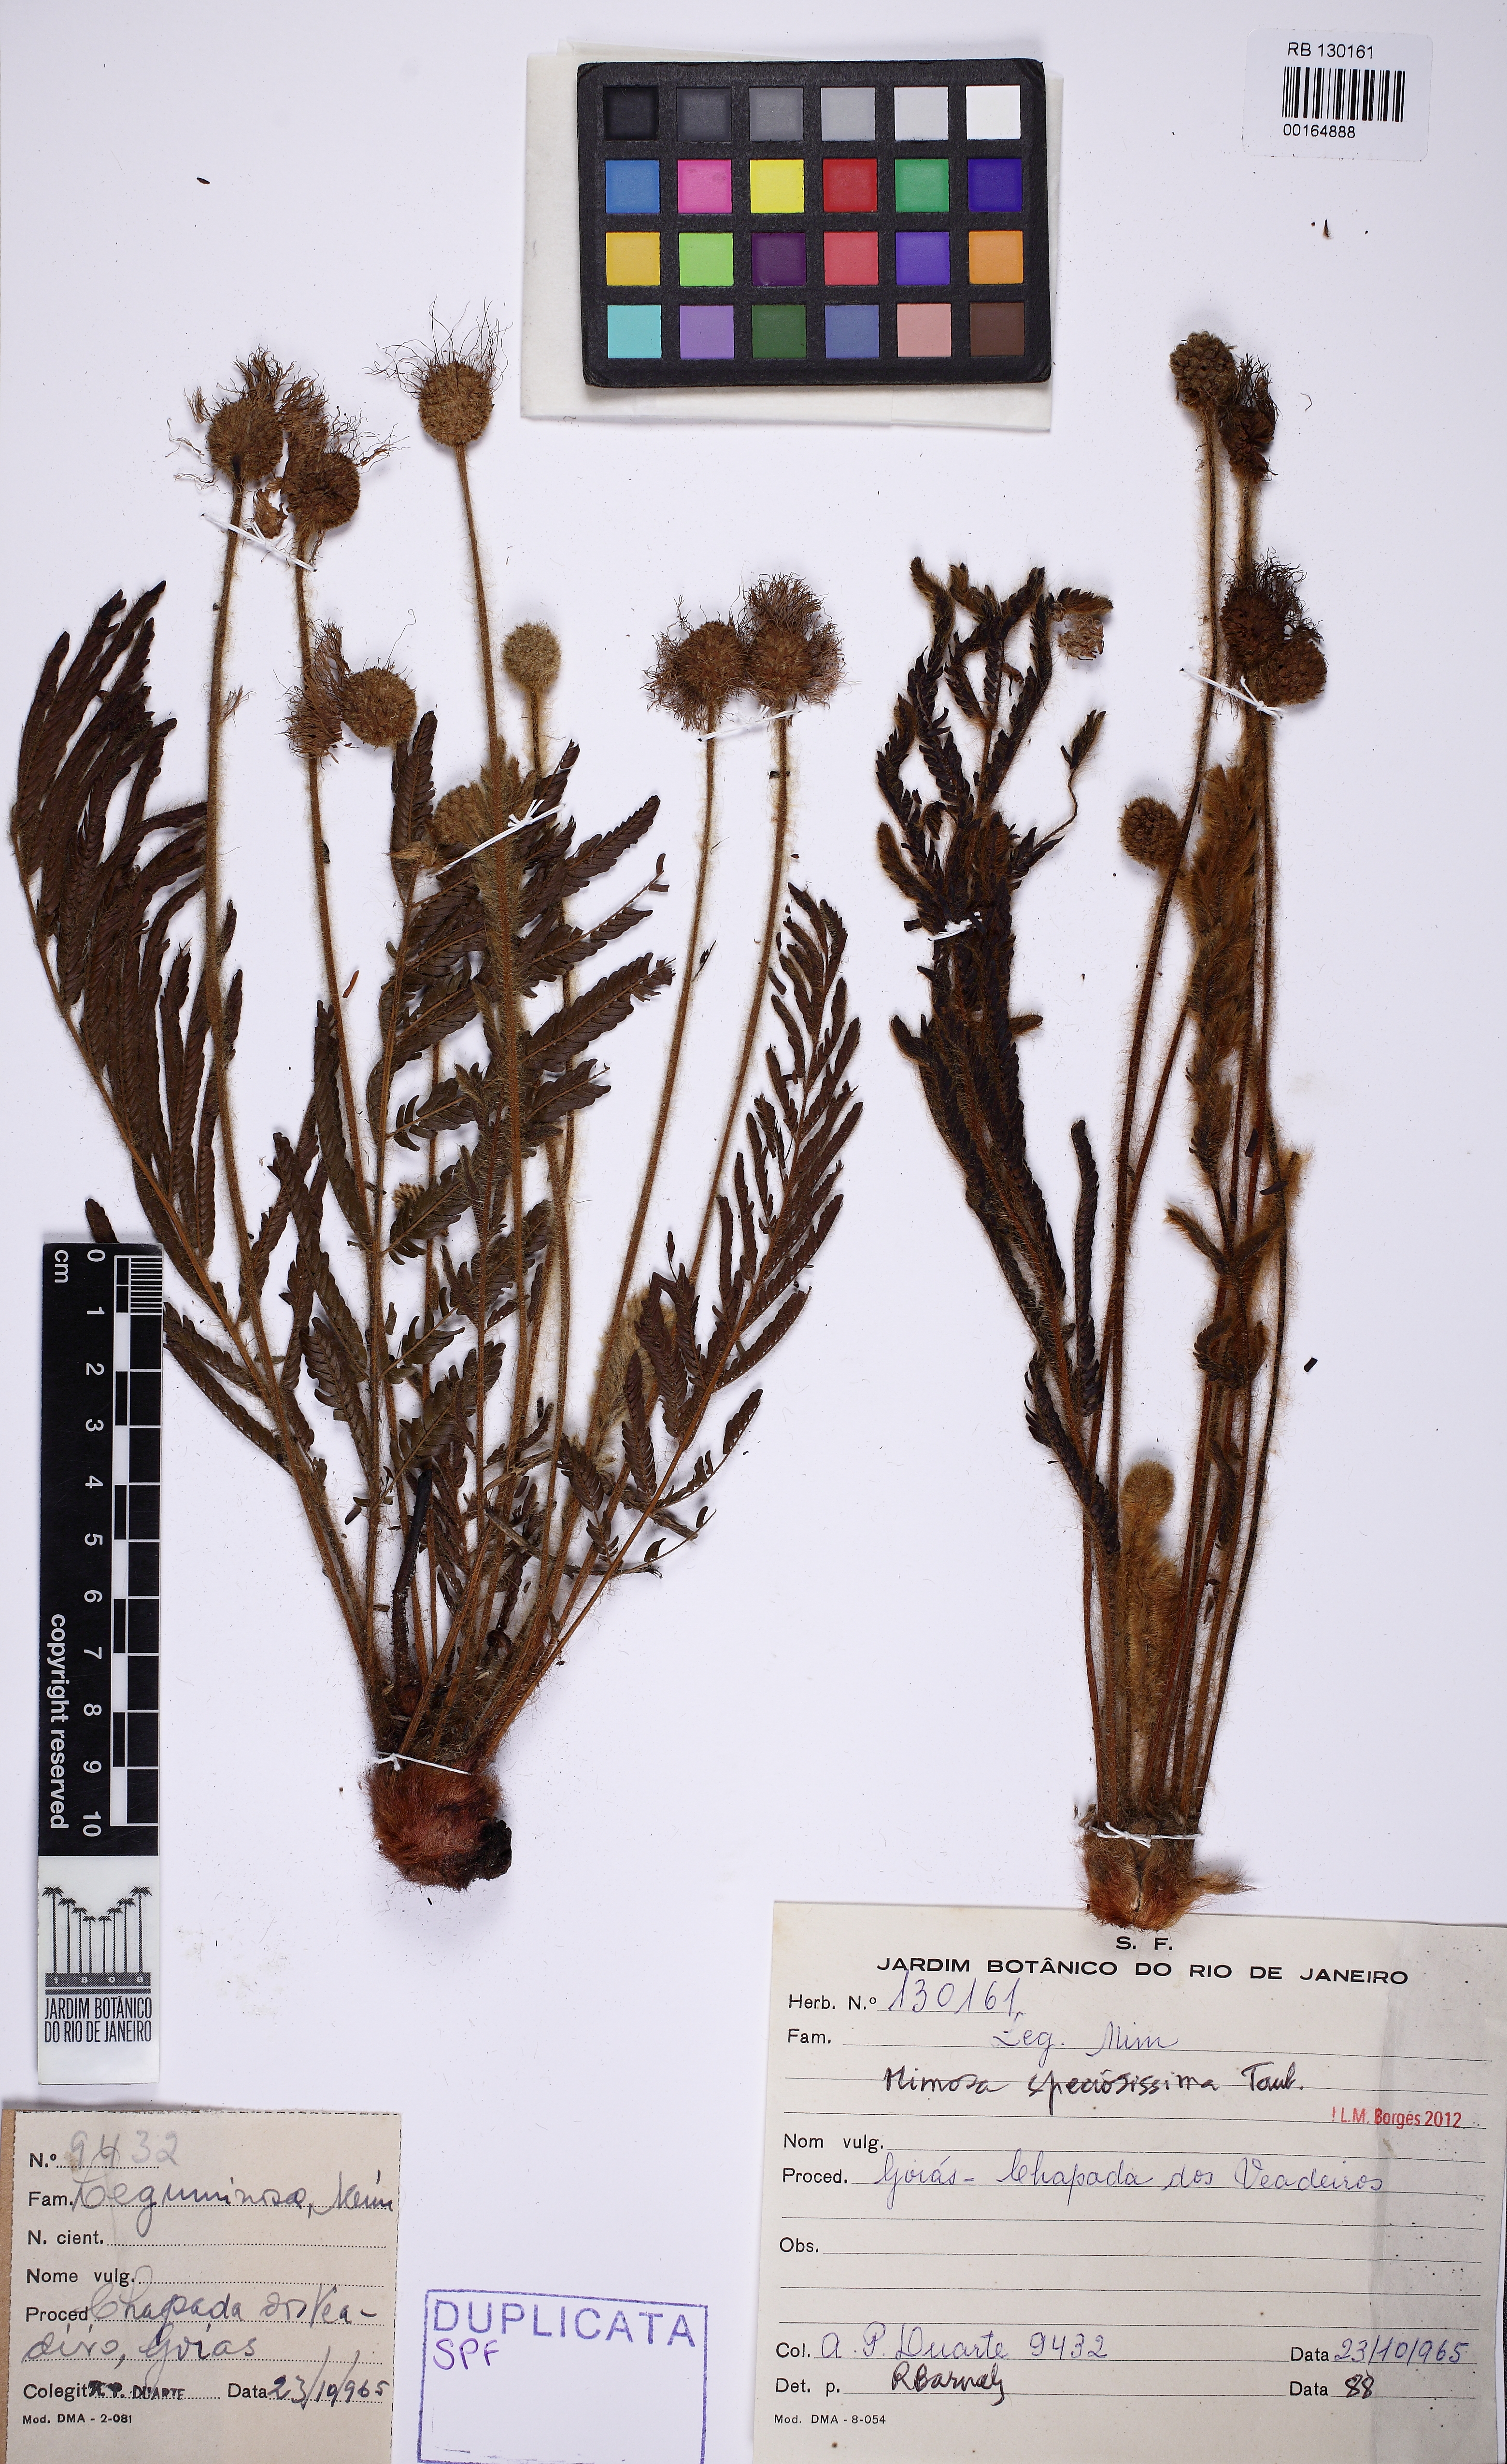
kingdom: Plantae
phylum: Tracheophyta
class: Magnoliopsida
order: Fabales
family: Fabaceae
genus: Mimosa
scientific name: Mimosa speciosissima
